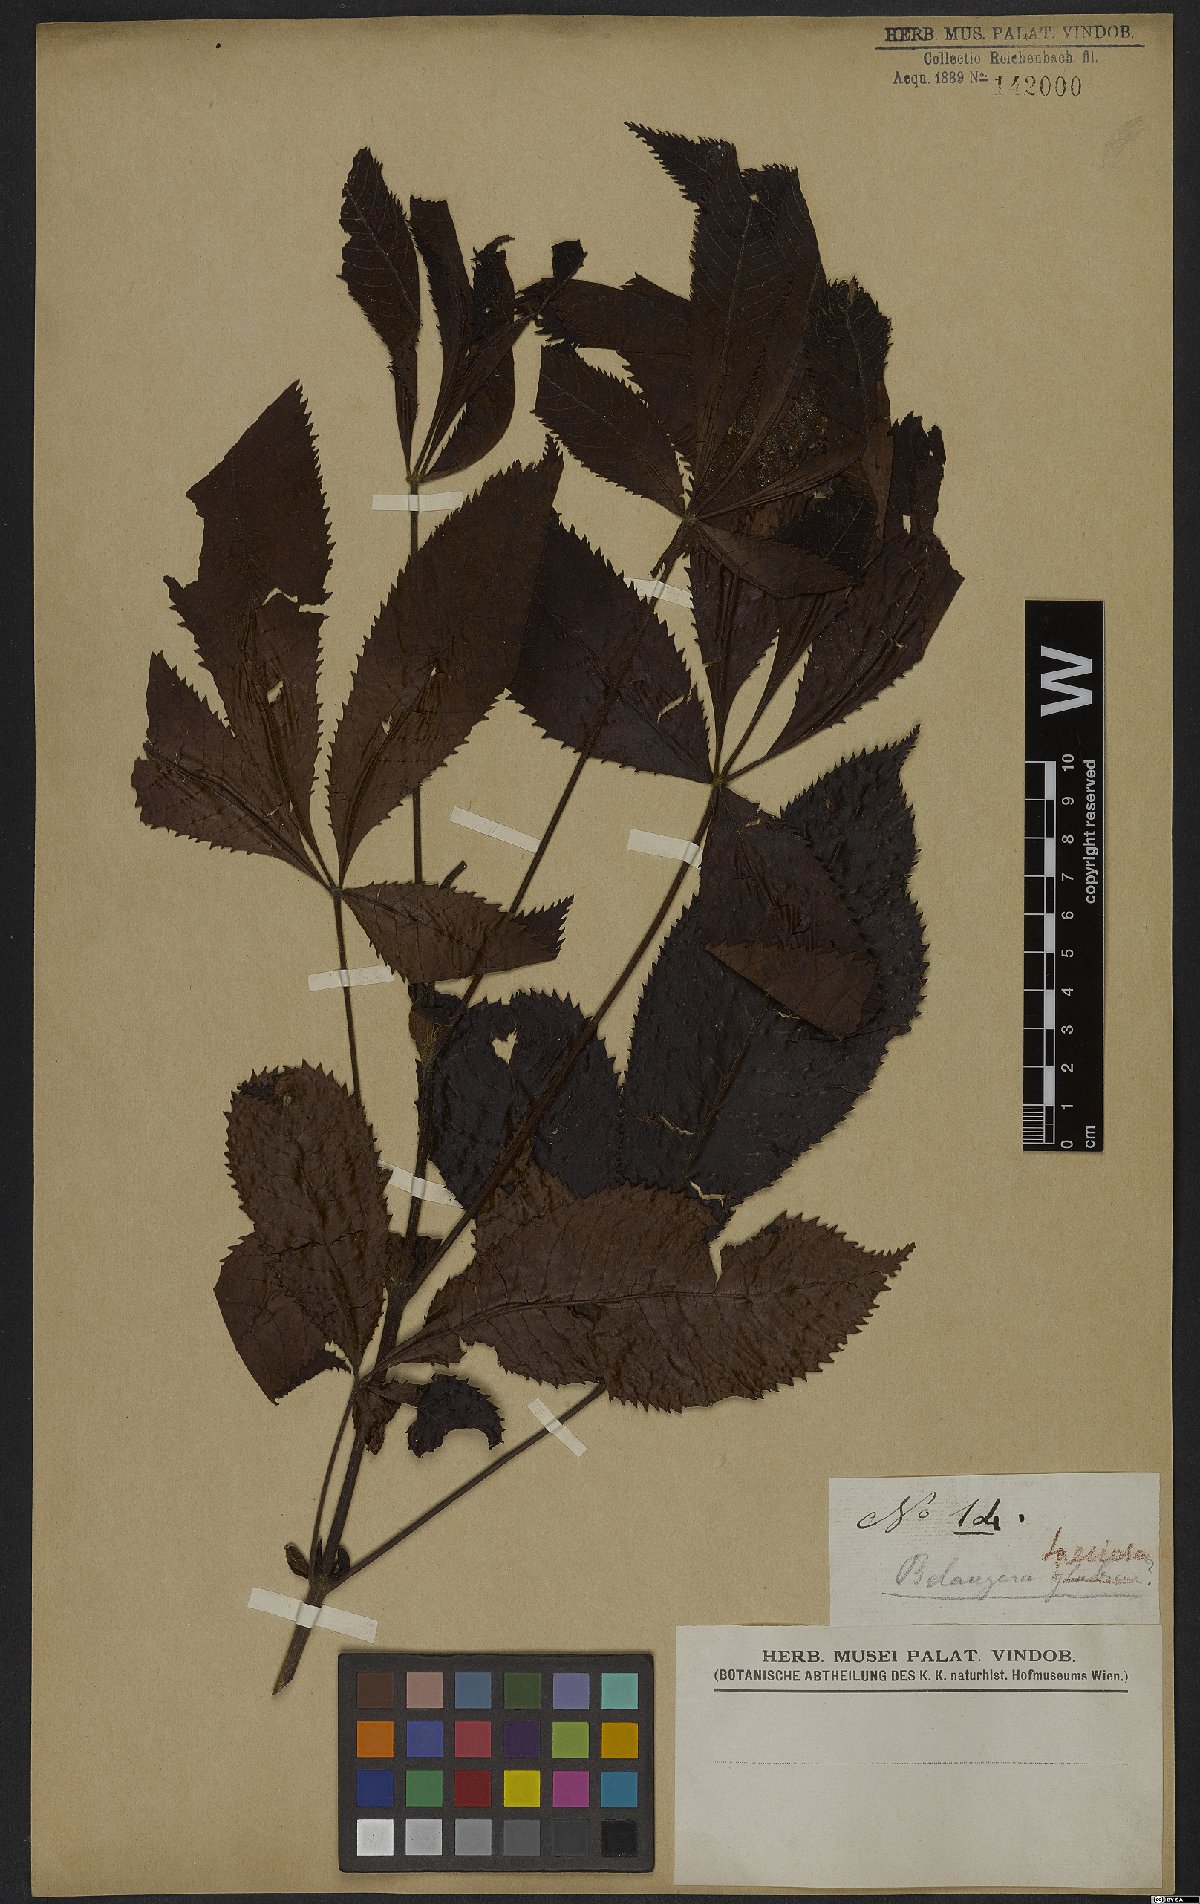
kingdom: Plantae
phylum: Tracheophyta
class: Magnoliopsida
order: Oxalidales
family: Cunoniaceae
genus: Lamanonia
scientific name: Lamanonia speciosa
